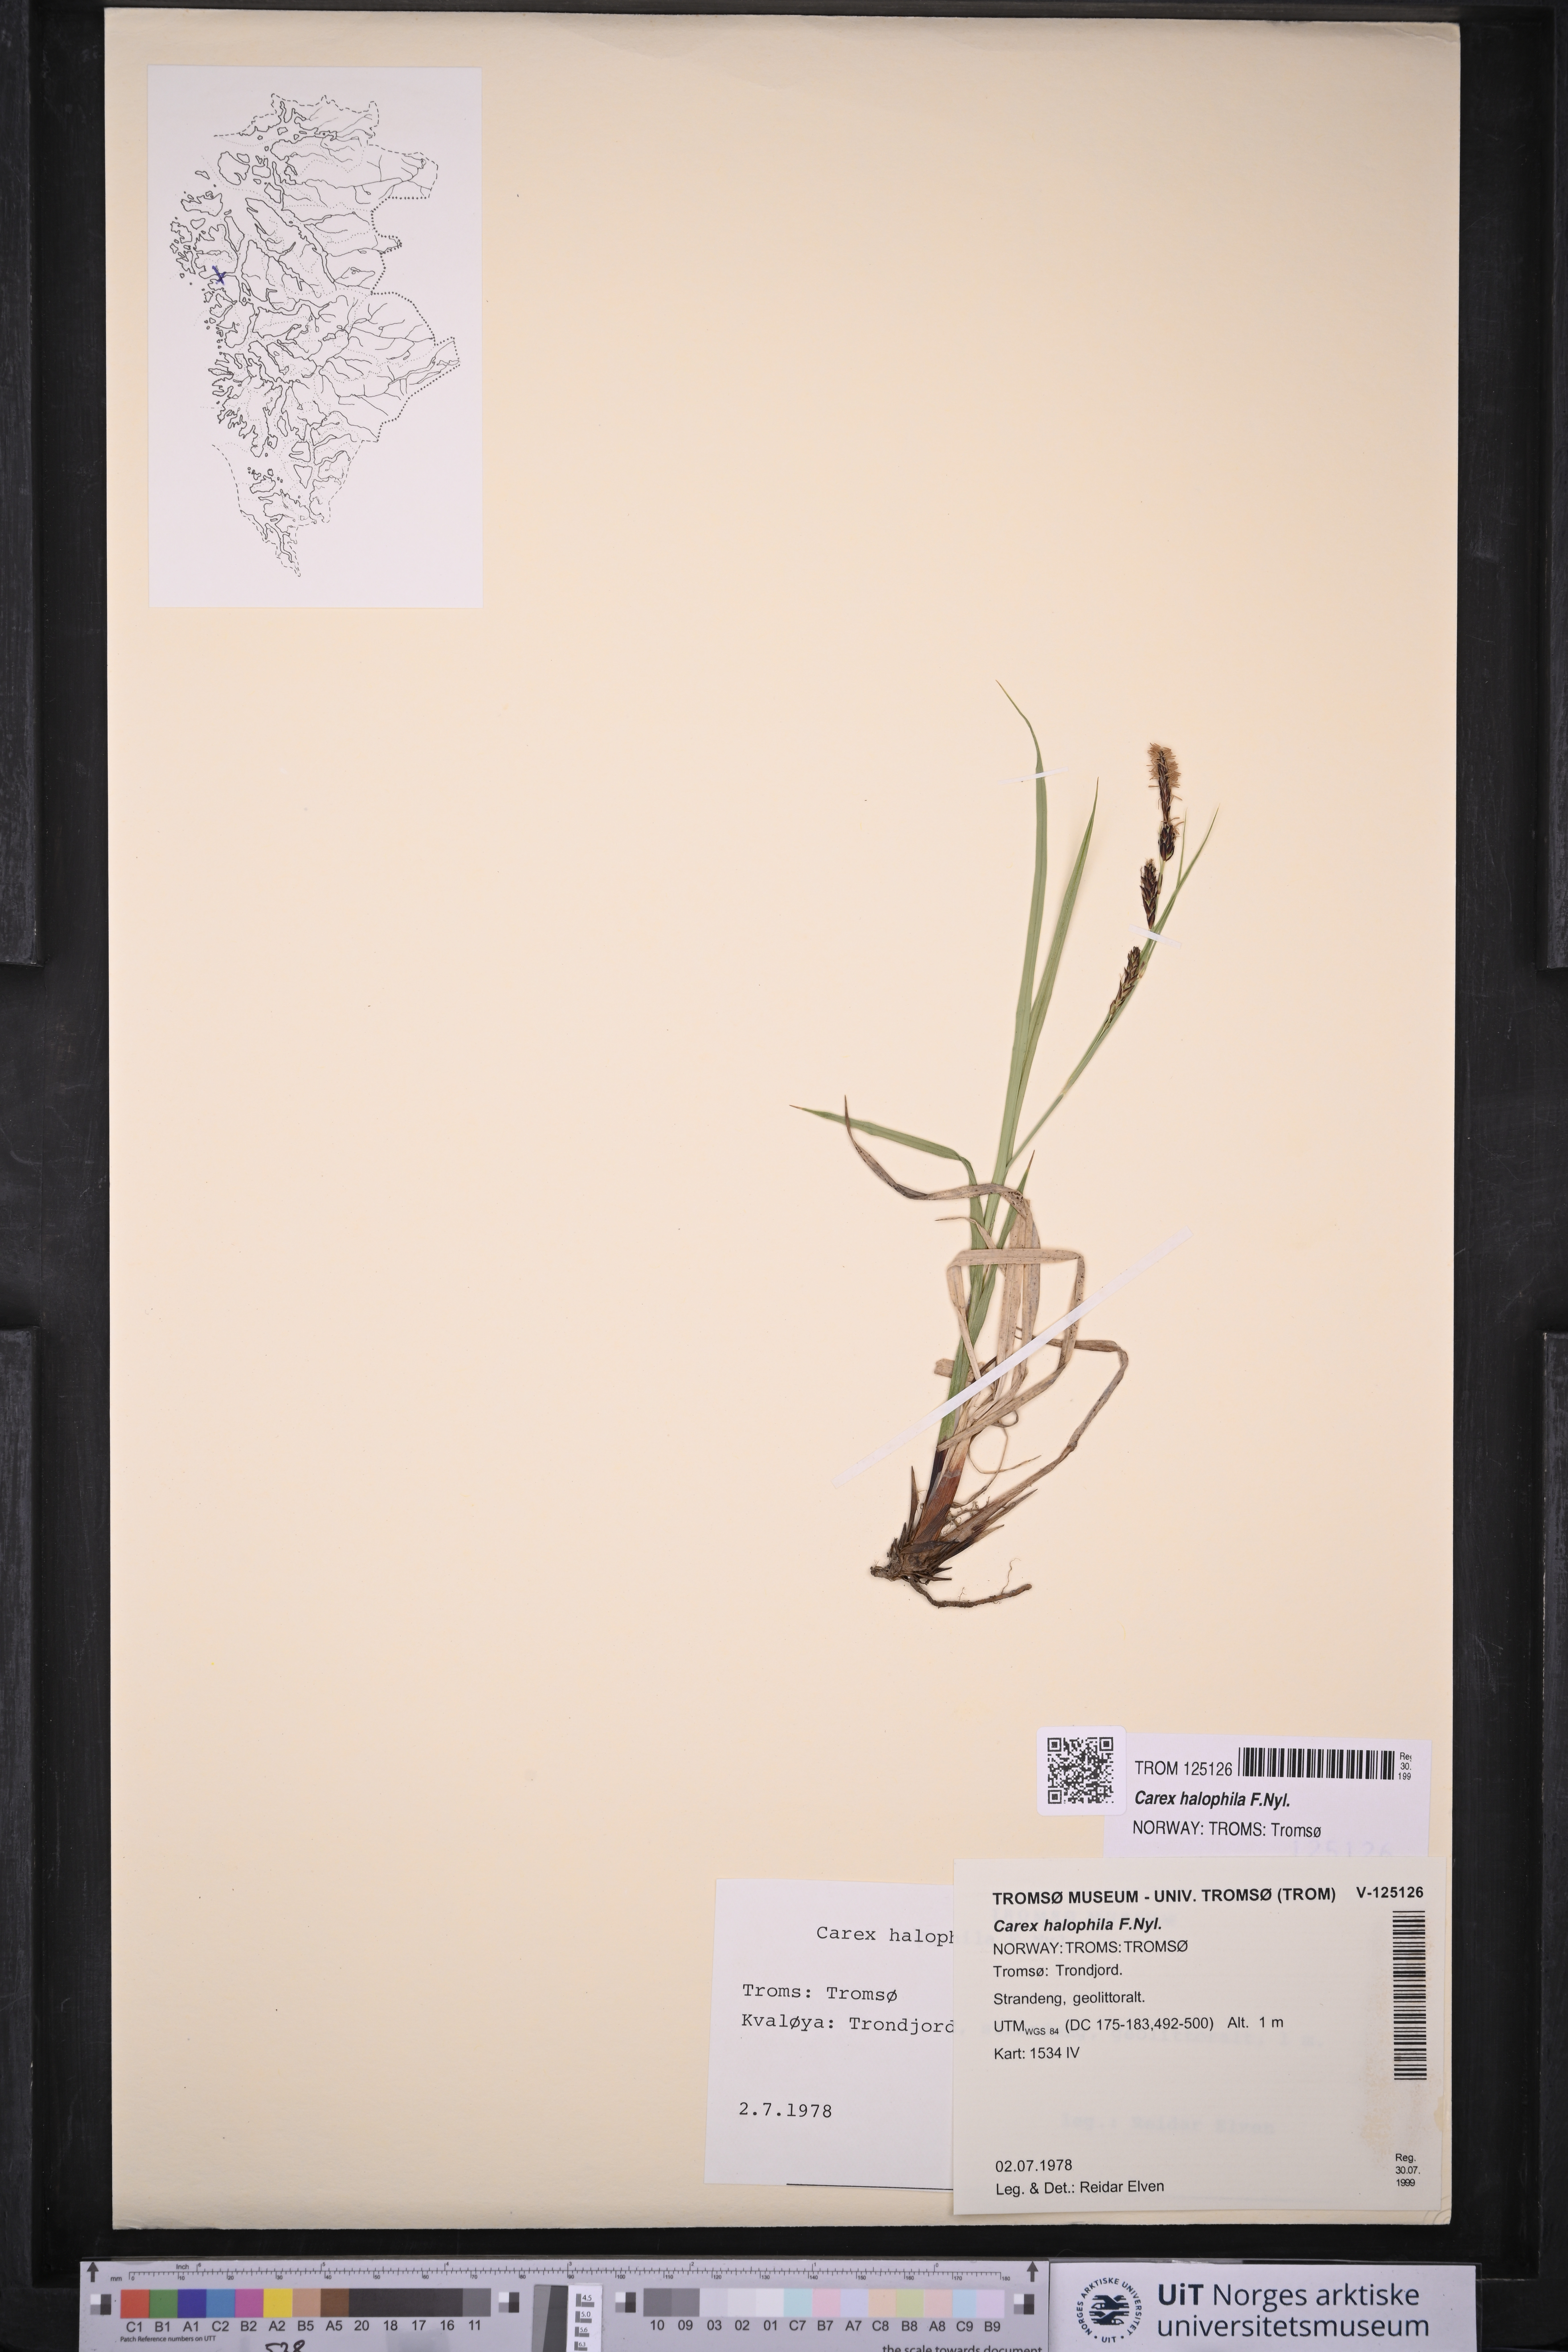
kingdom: Plantae
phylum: Tracheophyta
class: Liliopsida
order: Poales
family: Cyperaceae
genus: Carex
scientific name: Carex halophila
